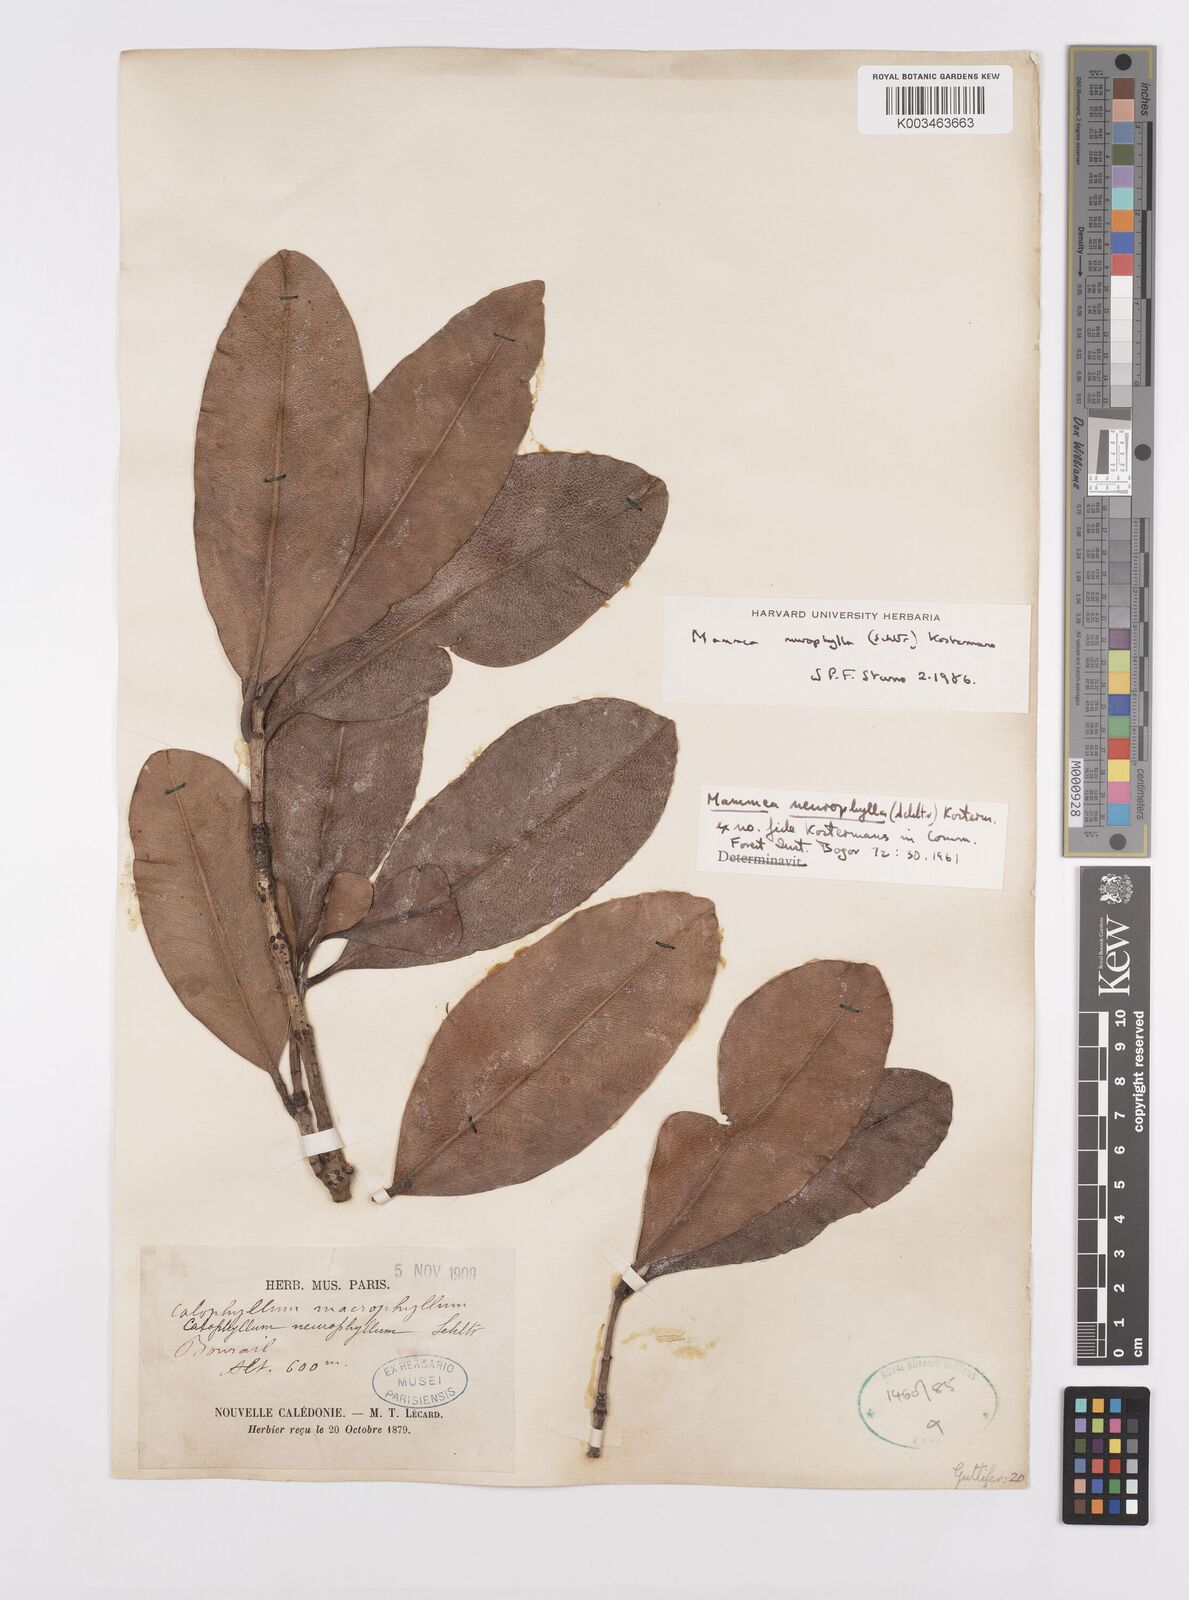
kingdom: Plantae
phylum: Tracheophyta
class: Magnoliopsida
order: Malpighiales
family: Calophyllaceae
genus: Mammea
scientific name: Mammea neurophylla
